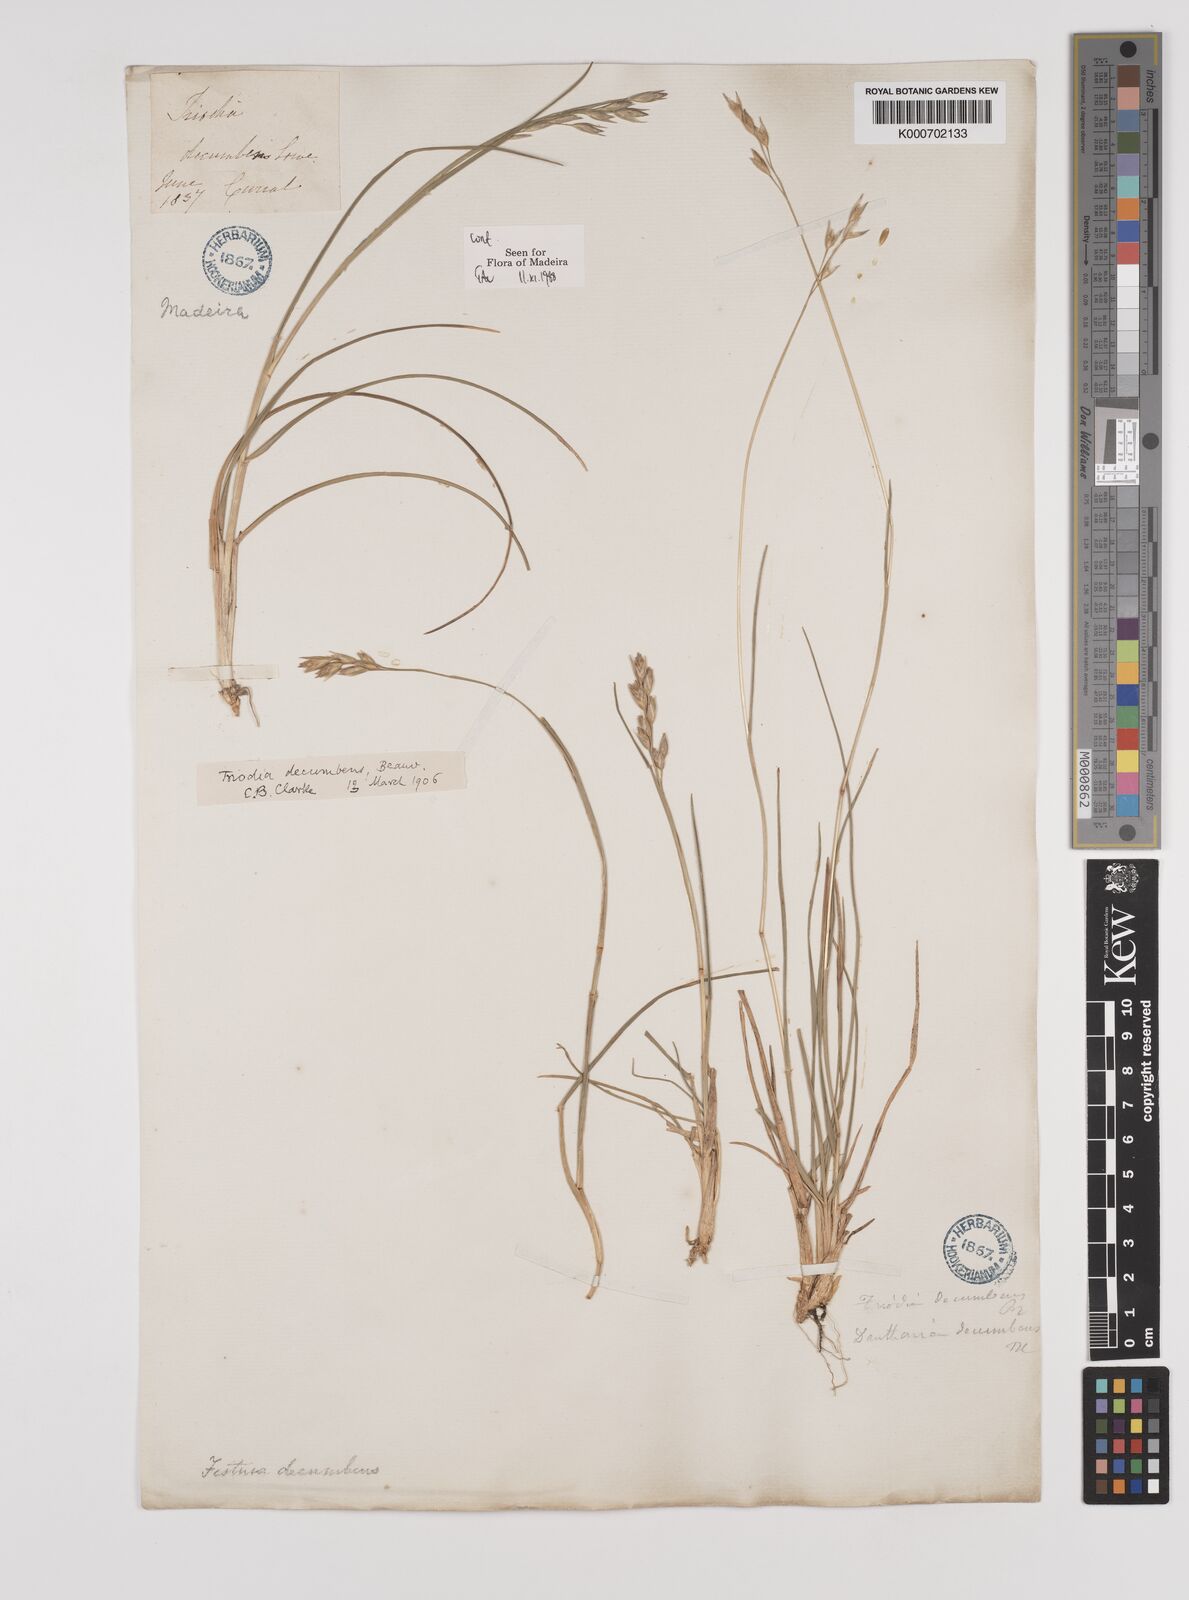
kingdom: Plantae
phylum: Tracheophyta
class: Liliopsida
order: Poales
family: Poaceae
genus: Danthonia
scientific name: Danthonia decumbens
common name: Common heathgrass
